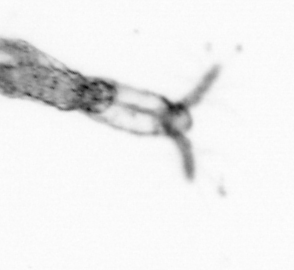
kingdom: Animalia
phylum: Arthropoda
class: Copepoda
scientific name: Copepoda
